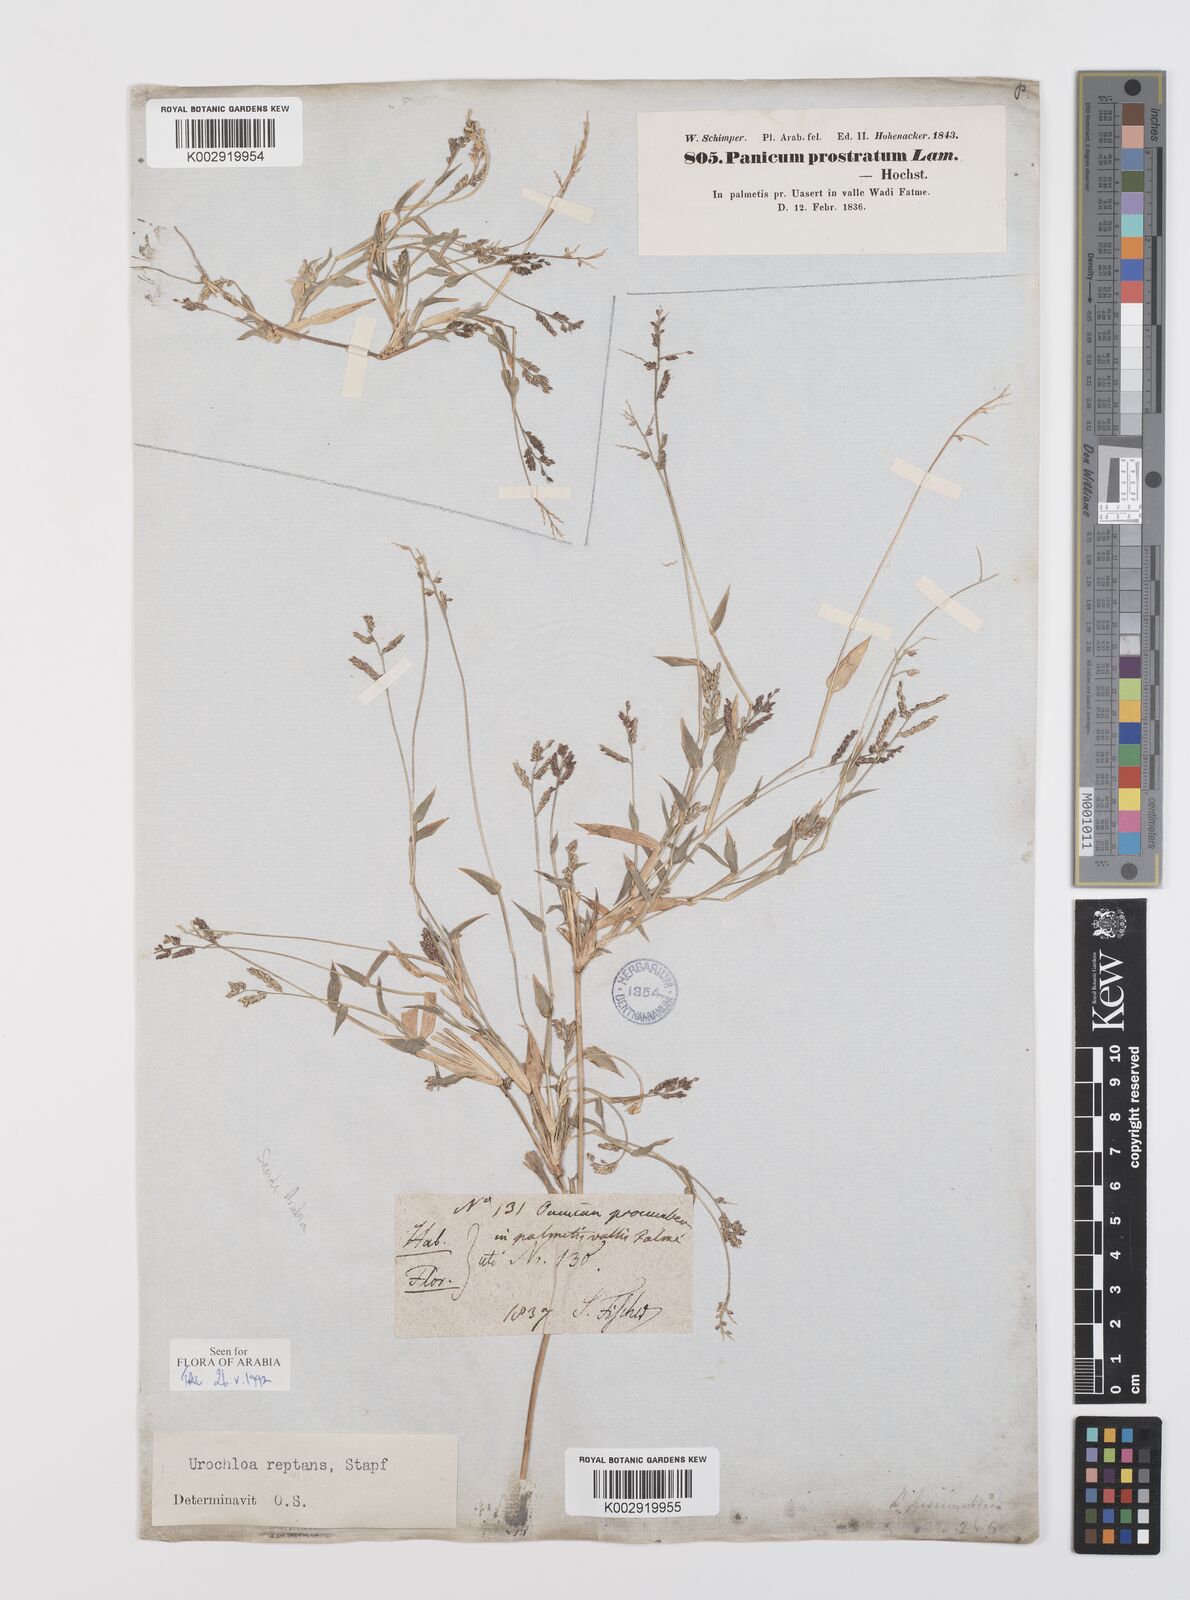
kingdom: Plantae
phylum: Tracheophyta
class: Liliopsida
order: Poales
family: Poaceae
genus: Urochloa
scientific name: Urochloa reptans
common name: Sprawling signalgrass
